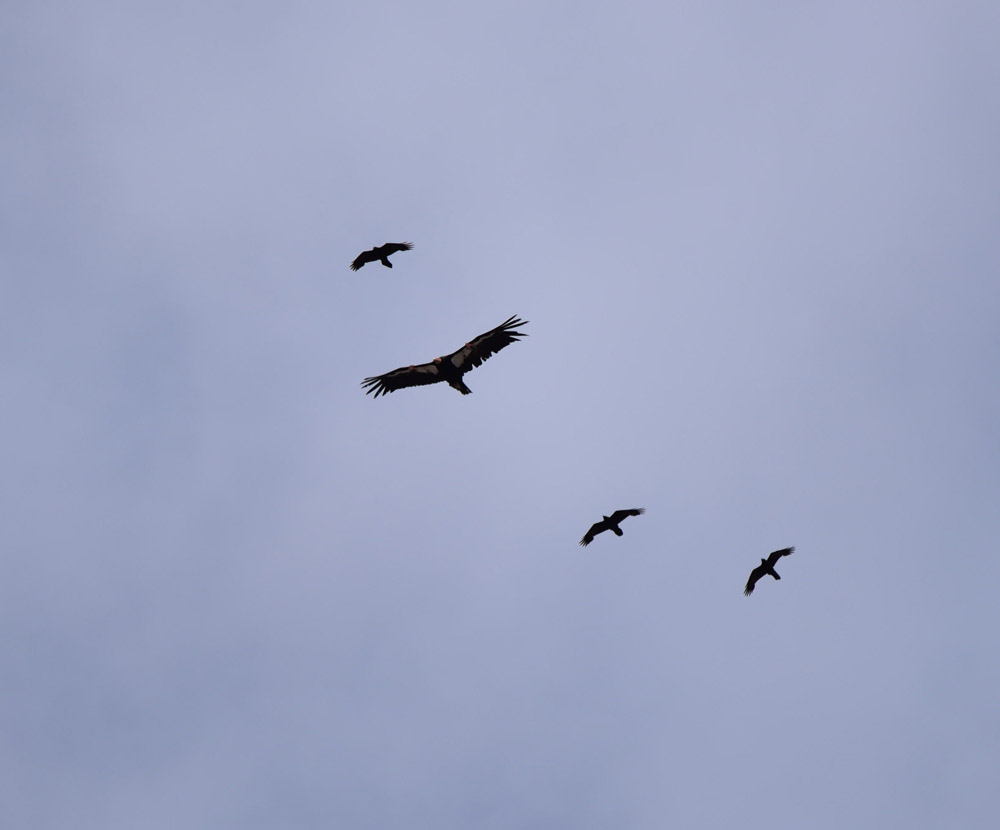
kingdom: Animalia
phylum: Chordata
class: Aves
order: Accipitriformes
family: Cathartidae
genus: Gymnogyps
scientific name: Gymnogyps californianus
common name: California condor
